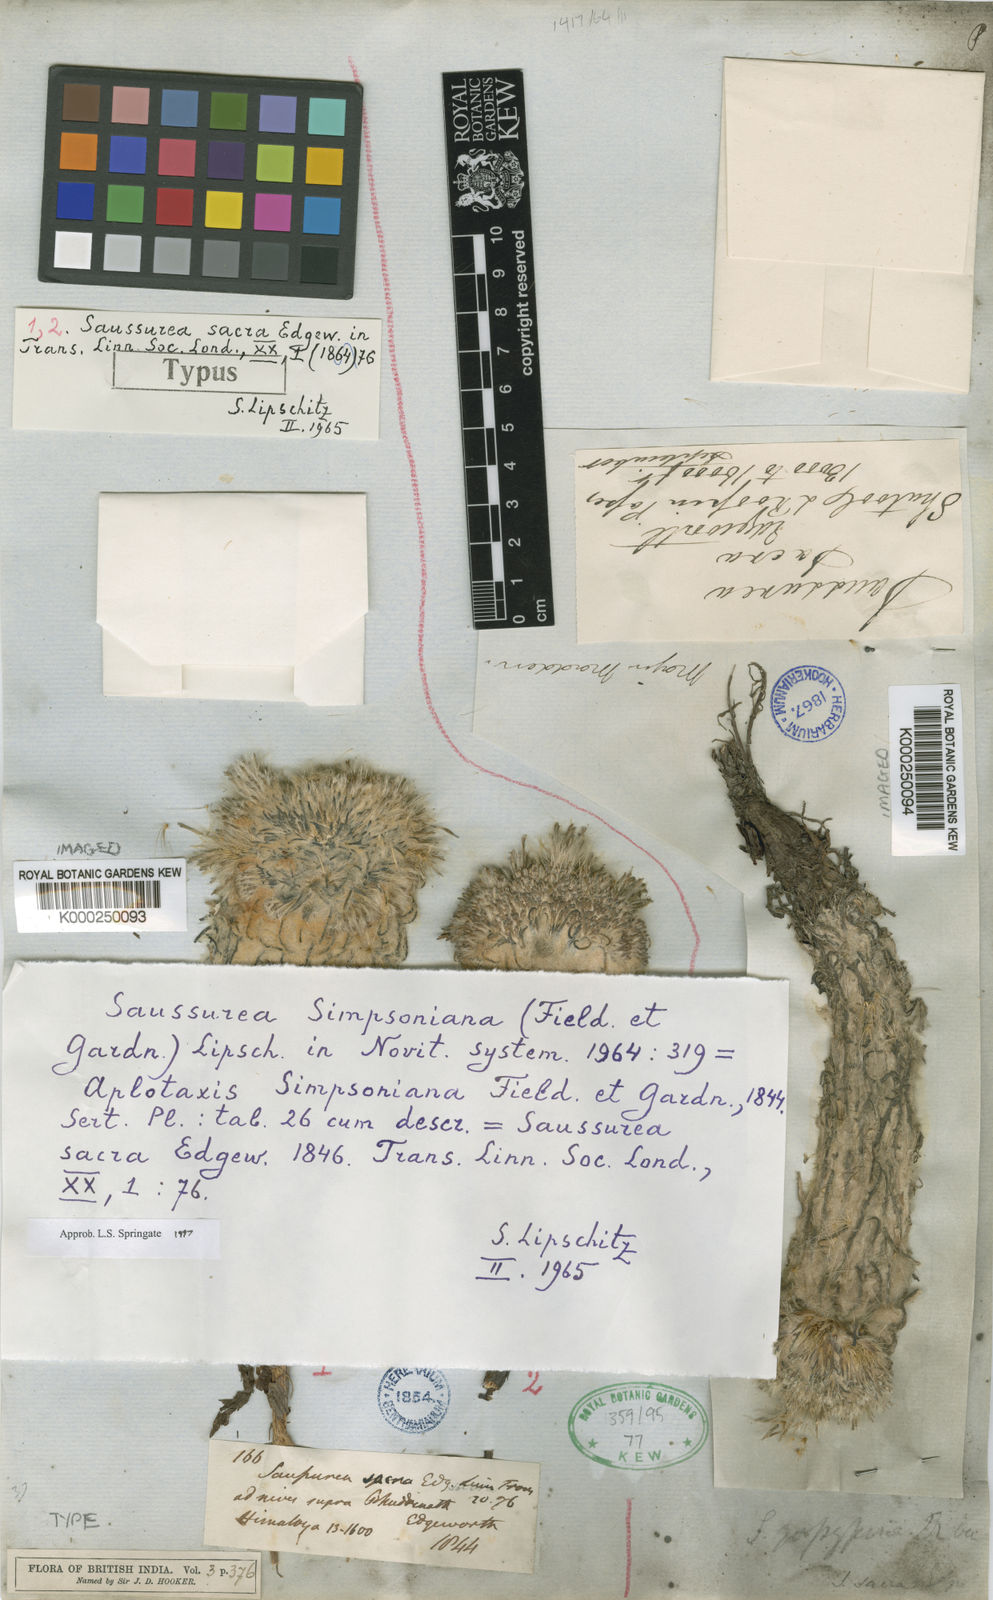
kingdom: Plantae
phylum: Tracheophyta
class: Magnoliopsida
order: Asterales
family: Asteraceae
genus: Saussurea
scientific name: Saussurea simpsoniana
